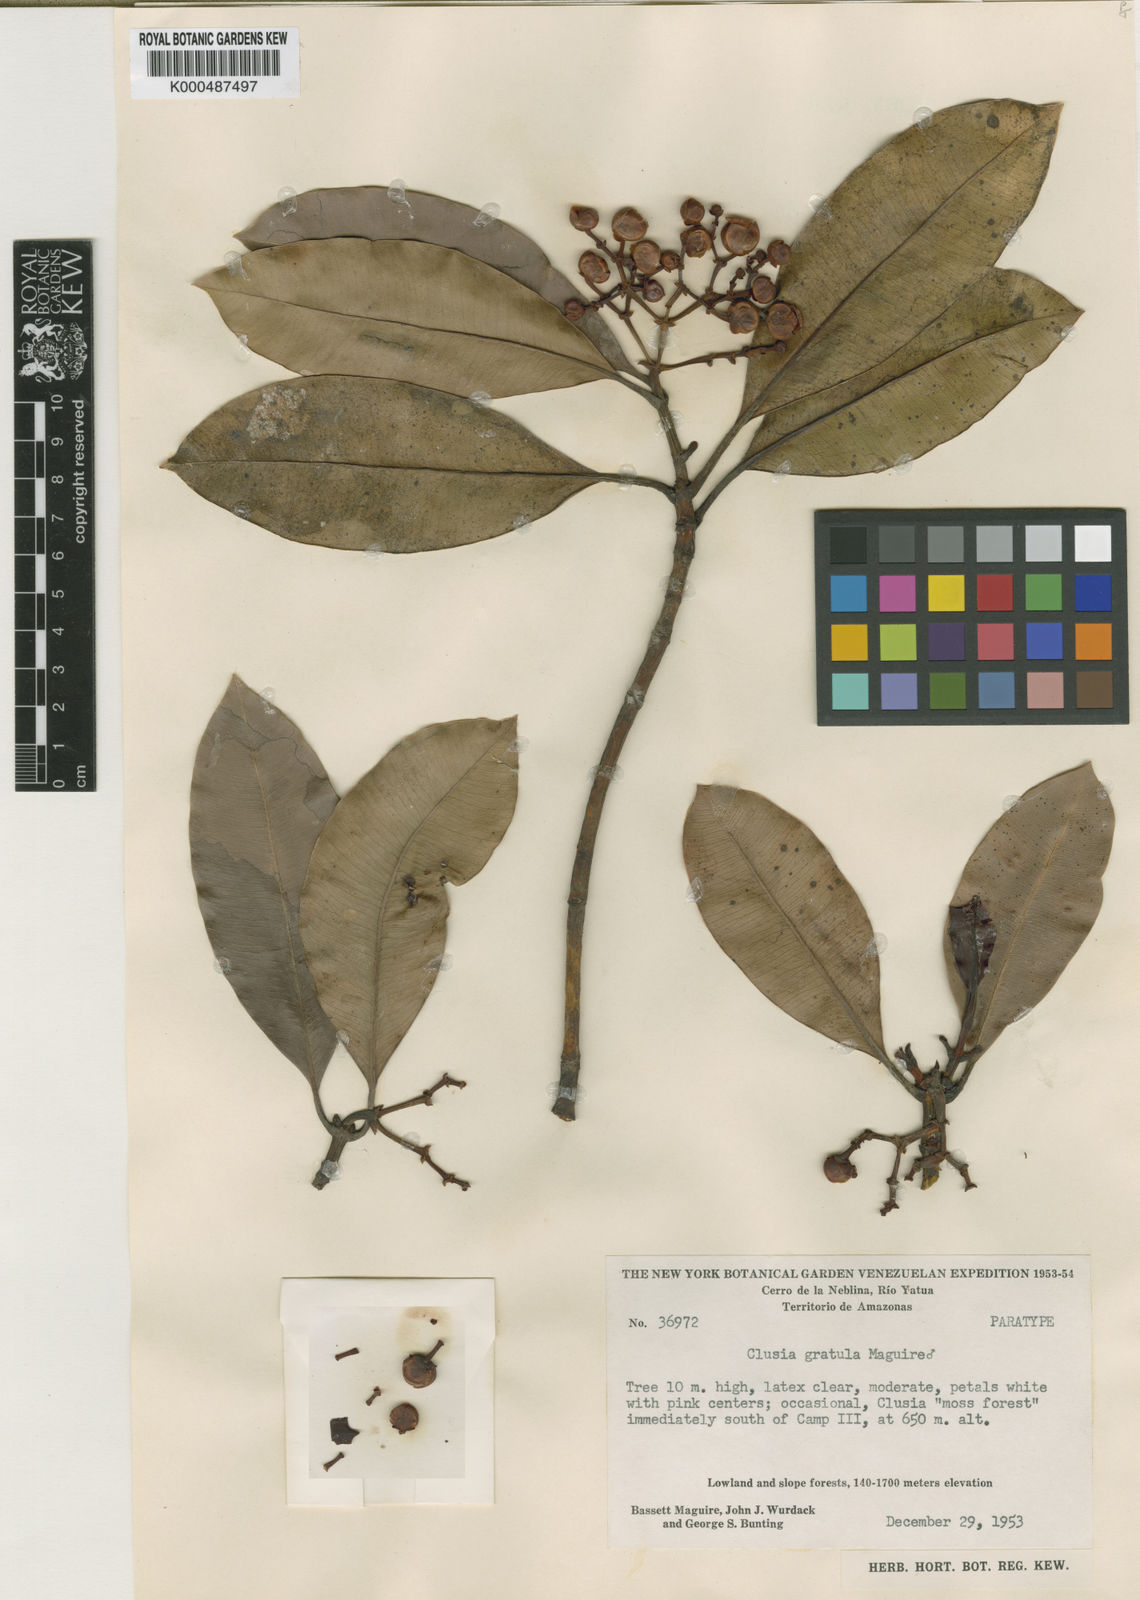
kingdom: Plantae
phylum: Tracheophyta
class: Magnoliopsida
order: Malpighiales
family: Clusiaceae
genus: Clusia
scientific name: Clusia gratula
